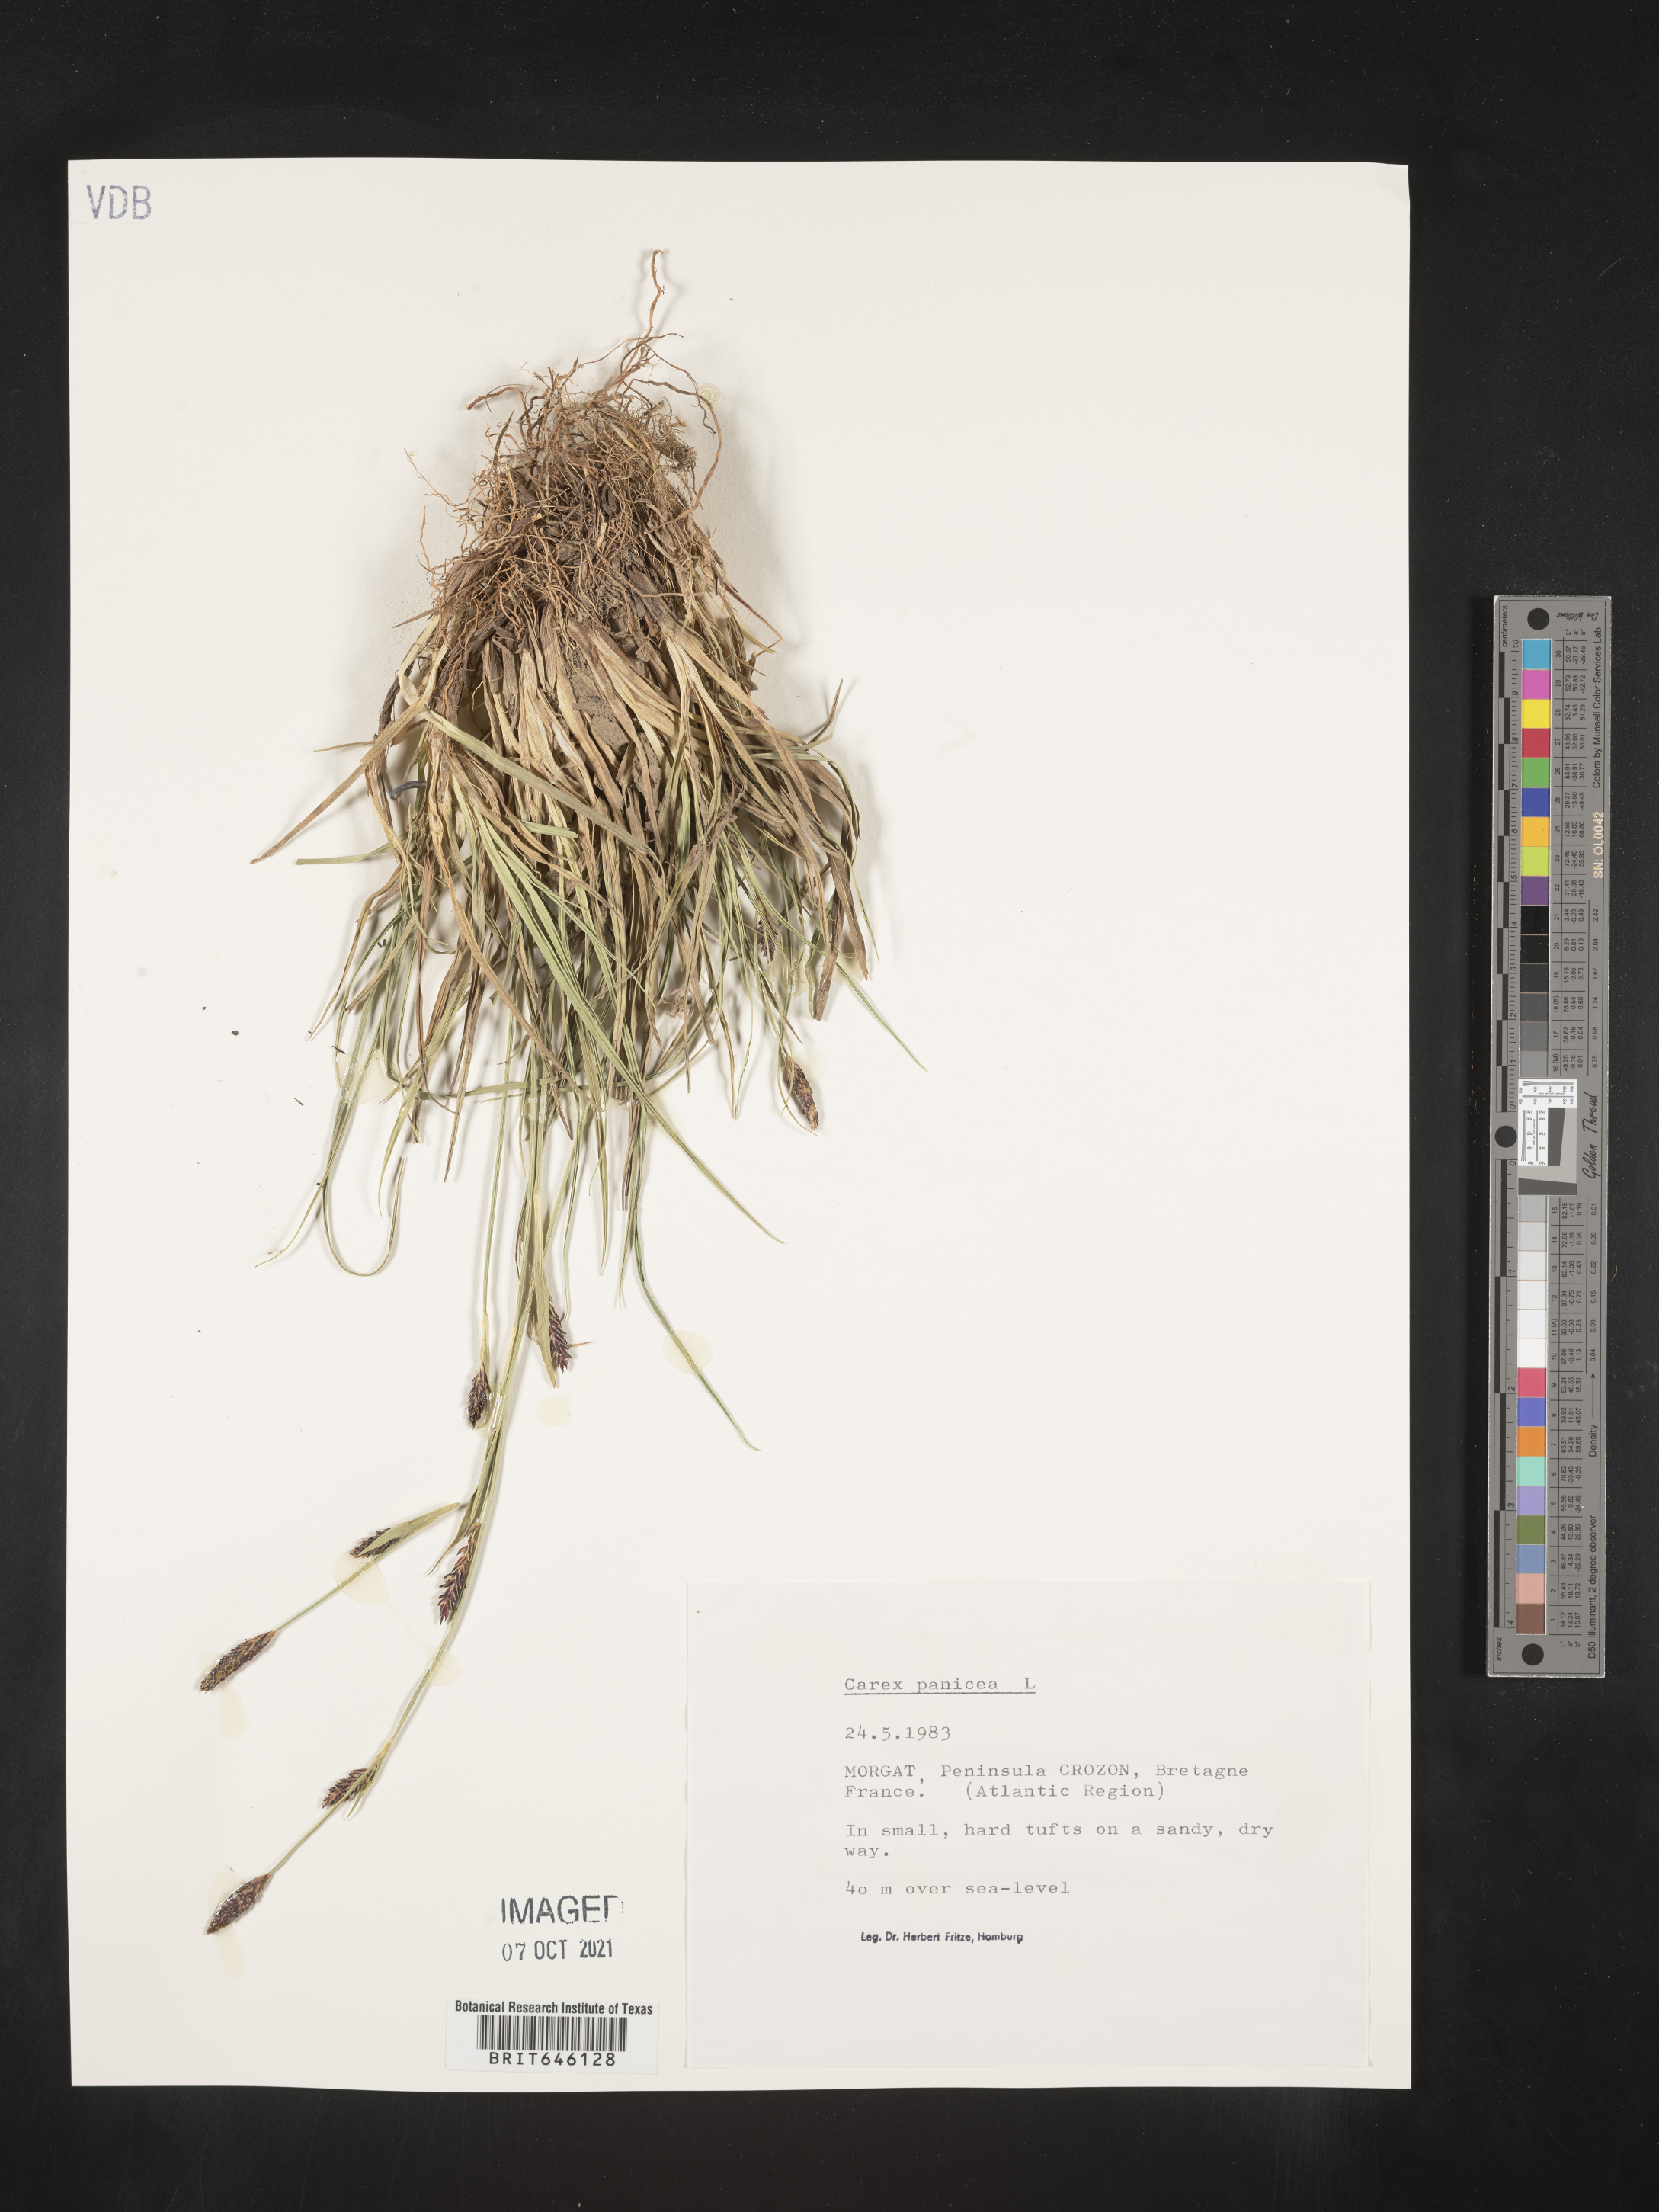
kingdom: Plantae
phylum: Tracheophyta
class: Liliopsida
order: Poales
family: Cyperaceae
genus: Carex
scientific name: Carex panicea
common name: Carnation sedge
